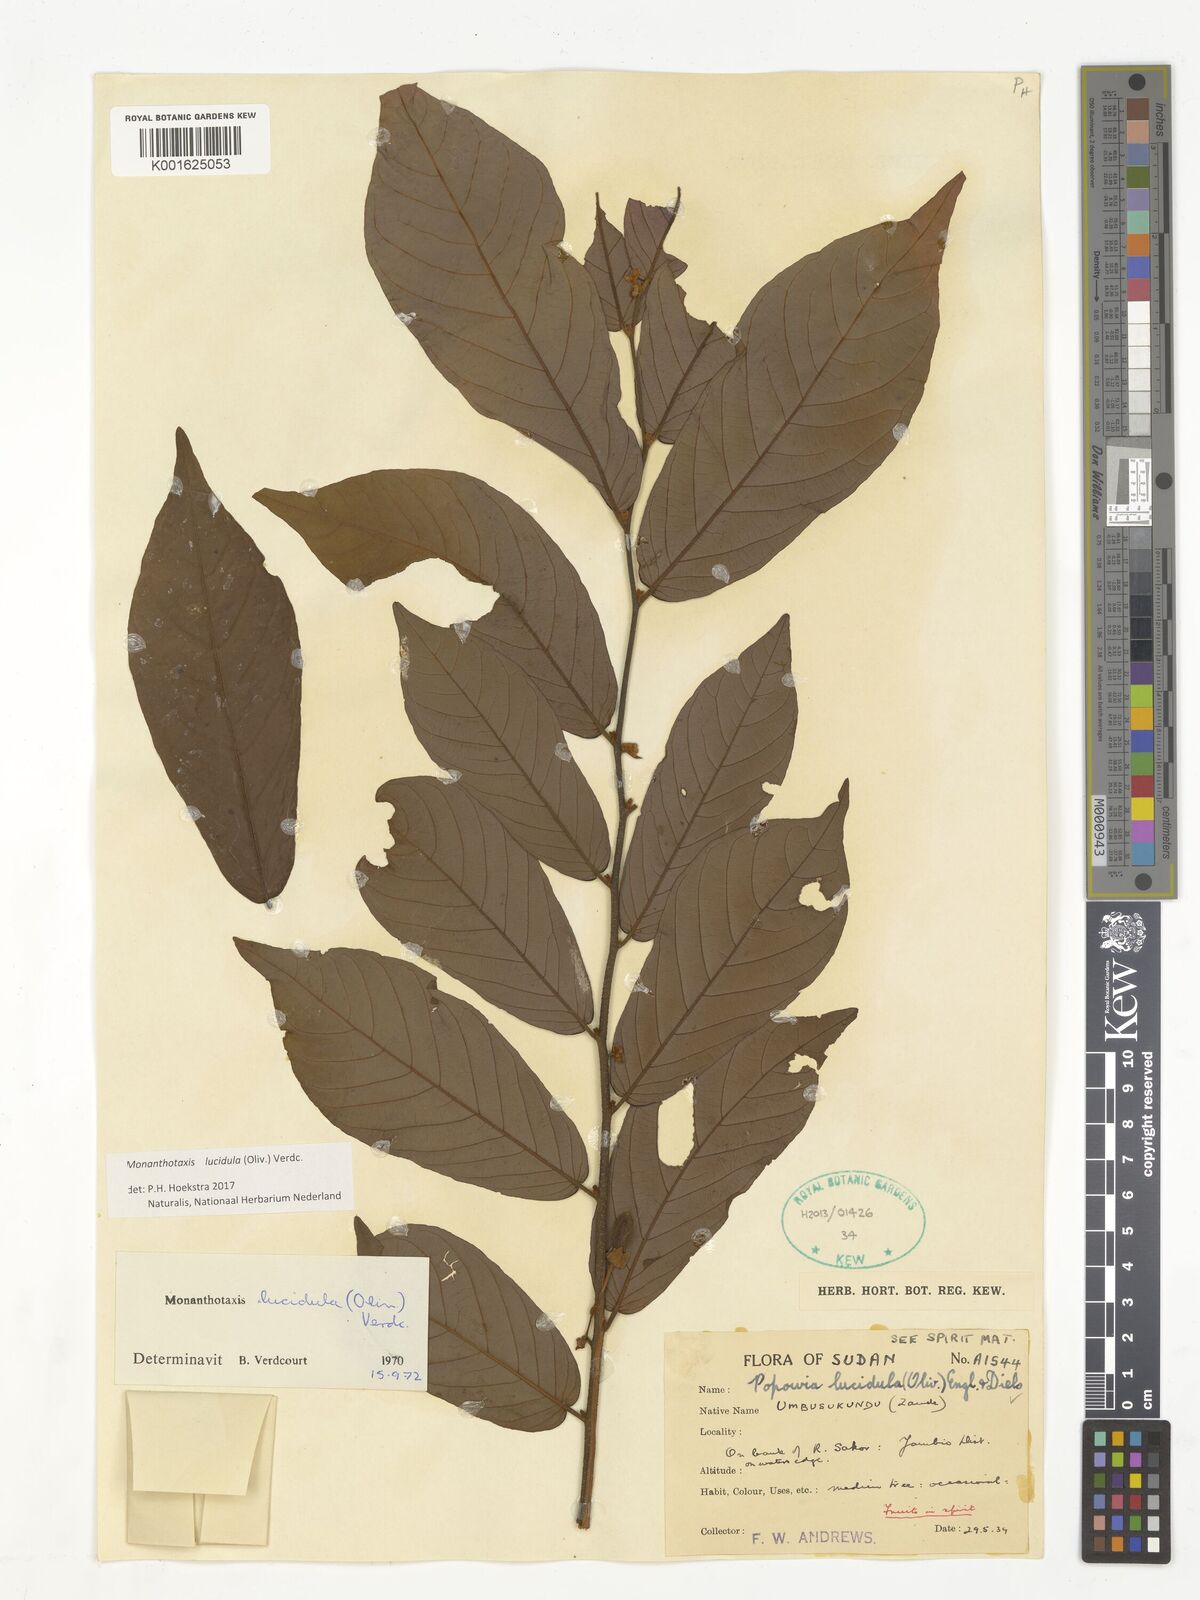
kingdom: Plantae
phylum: Tracheophyta
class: Magnoliopsida
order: Magnoliales
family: Annonaceae
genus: Monanthotaxis
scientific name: Monanthotaxis lucidula
